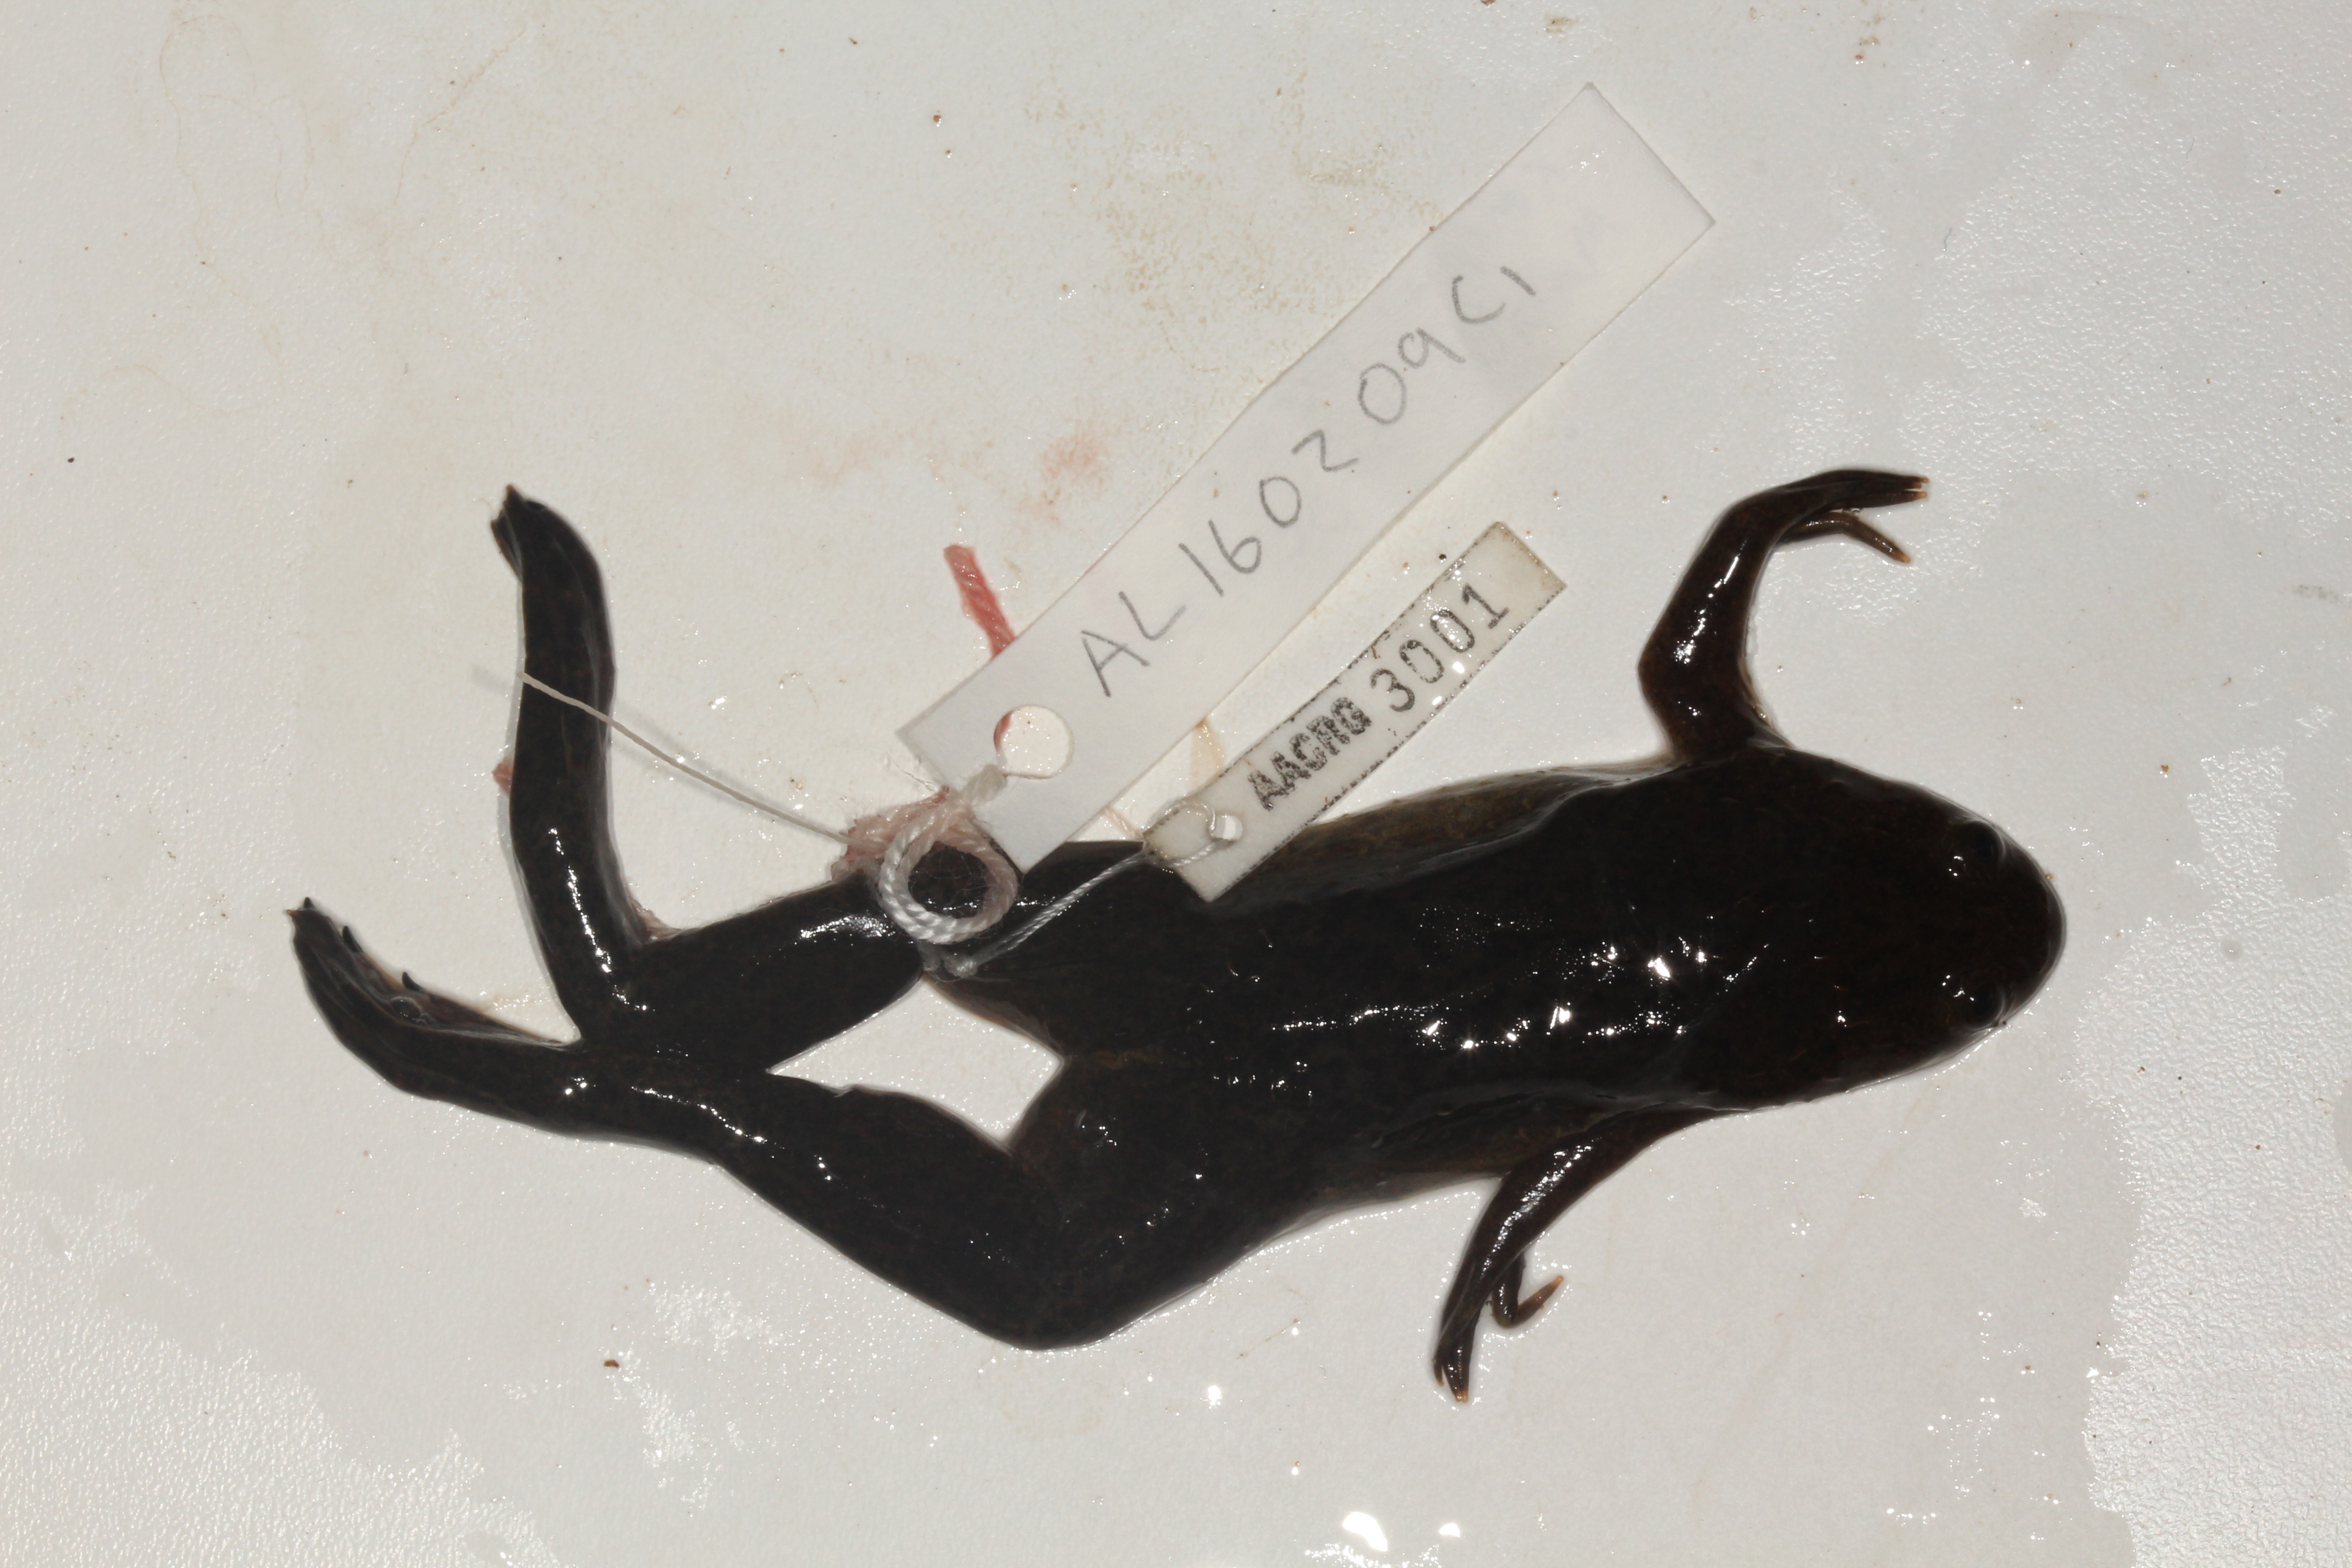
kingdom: Animalia
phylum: Chordata
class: Amphibia
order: Anura
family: Pipidae
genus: Xenopus
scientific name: Xenopus laevis
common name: African clawed frog
